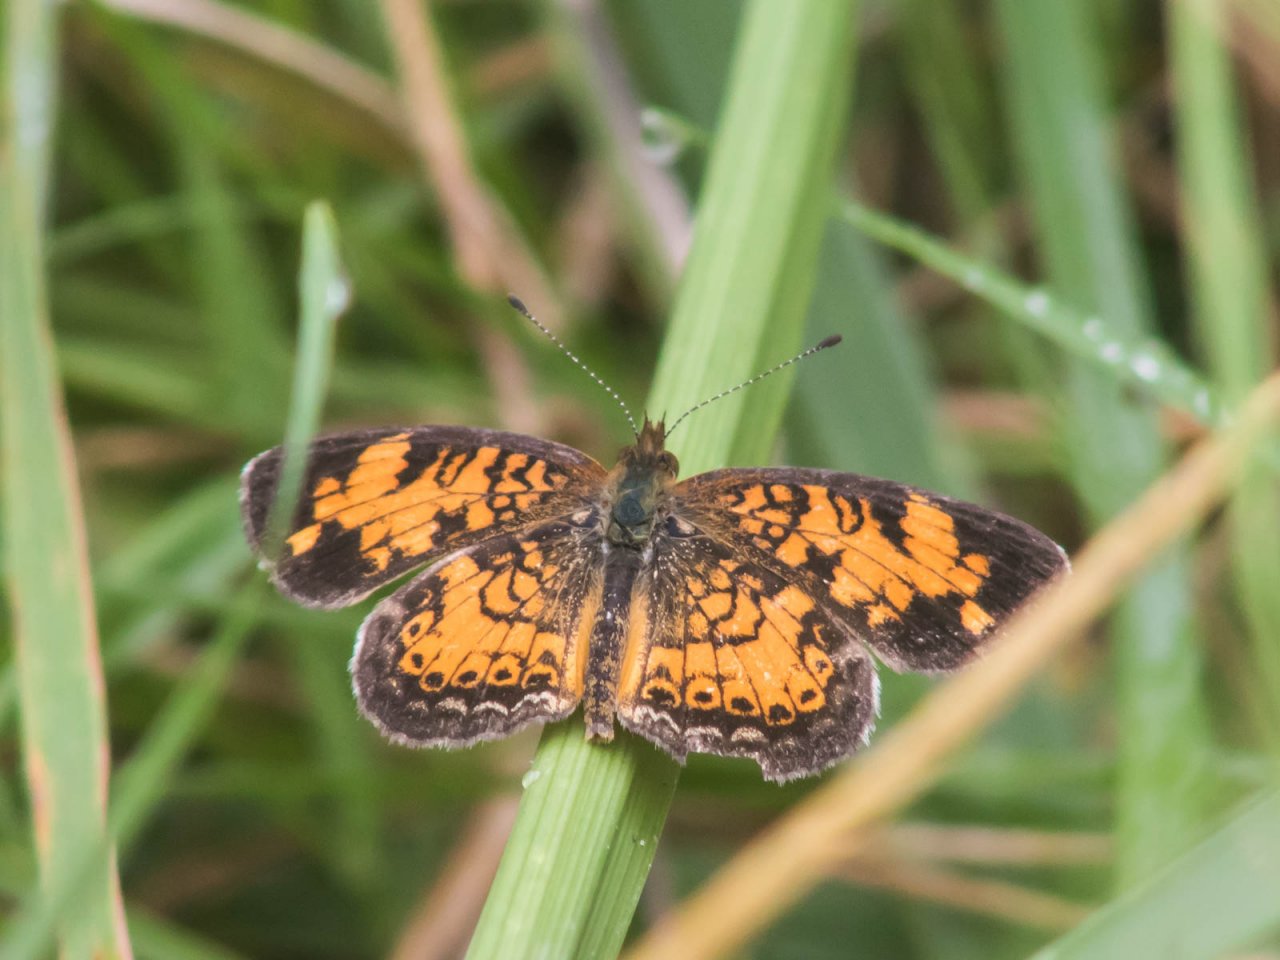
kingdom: Animalia
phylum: Arthropoda
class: Insecta
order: Lepidoptera
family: Nymphalidae
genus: Phyciodes
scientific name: Phyciodes tharos
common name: Pearl Crescent
